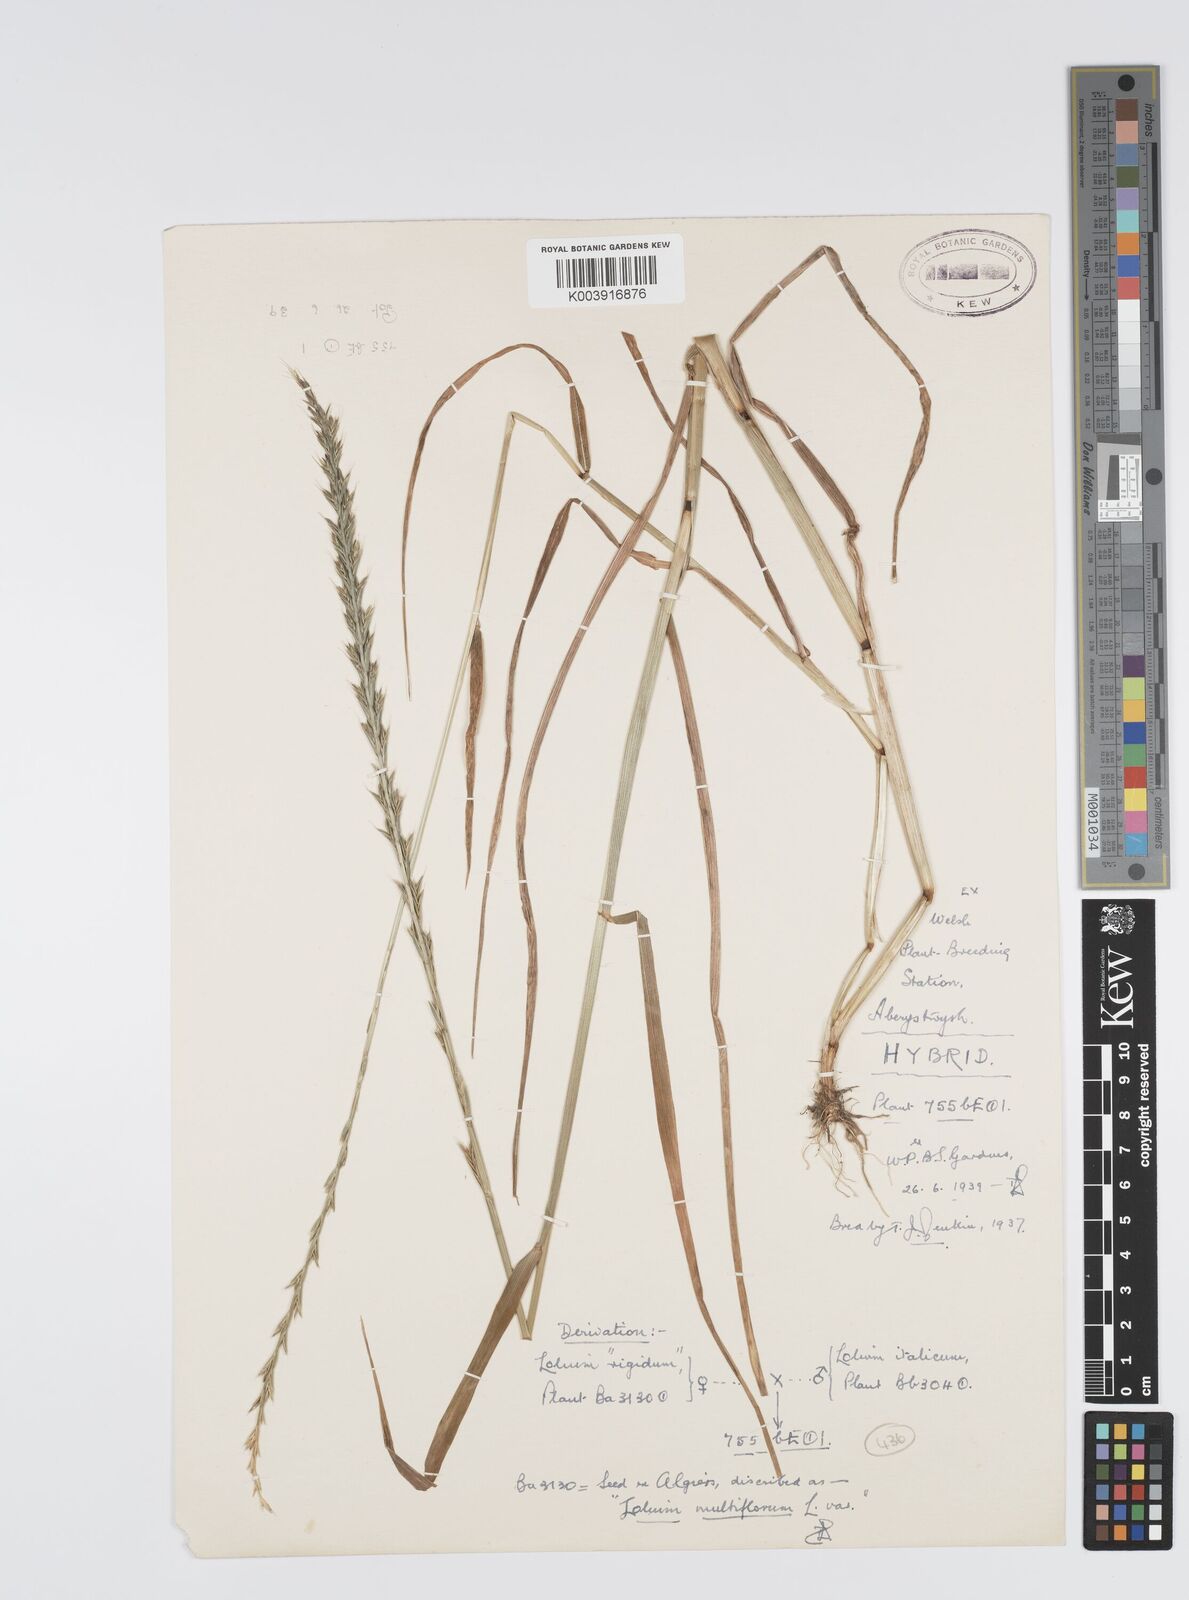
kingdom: Plantae
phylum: Tracheophyta
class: Liliopsida
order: Poales
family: Poaceae
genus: Lolium
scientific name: Lolium multiflorum
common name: Annual ryegrass
